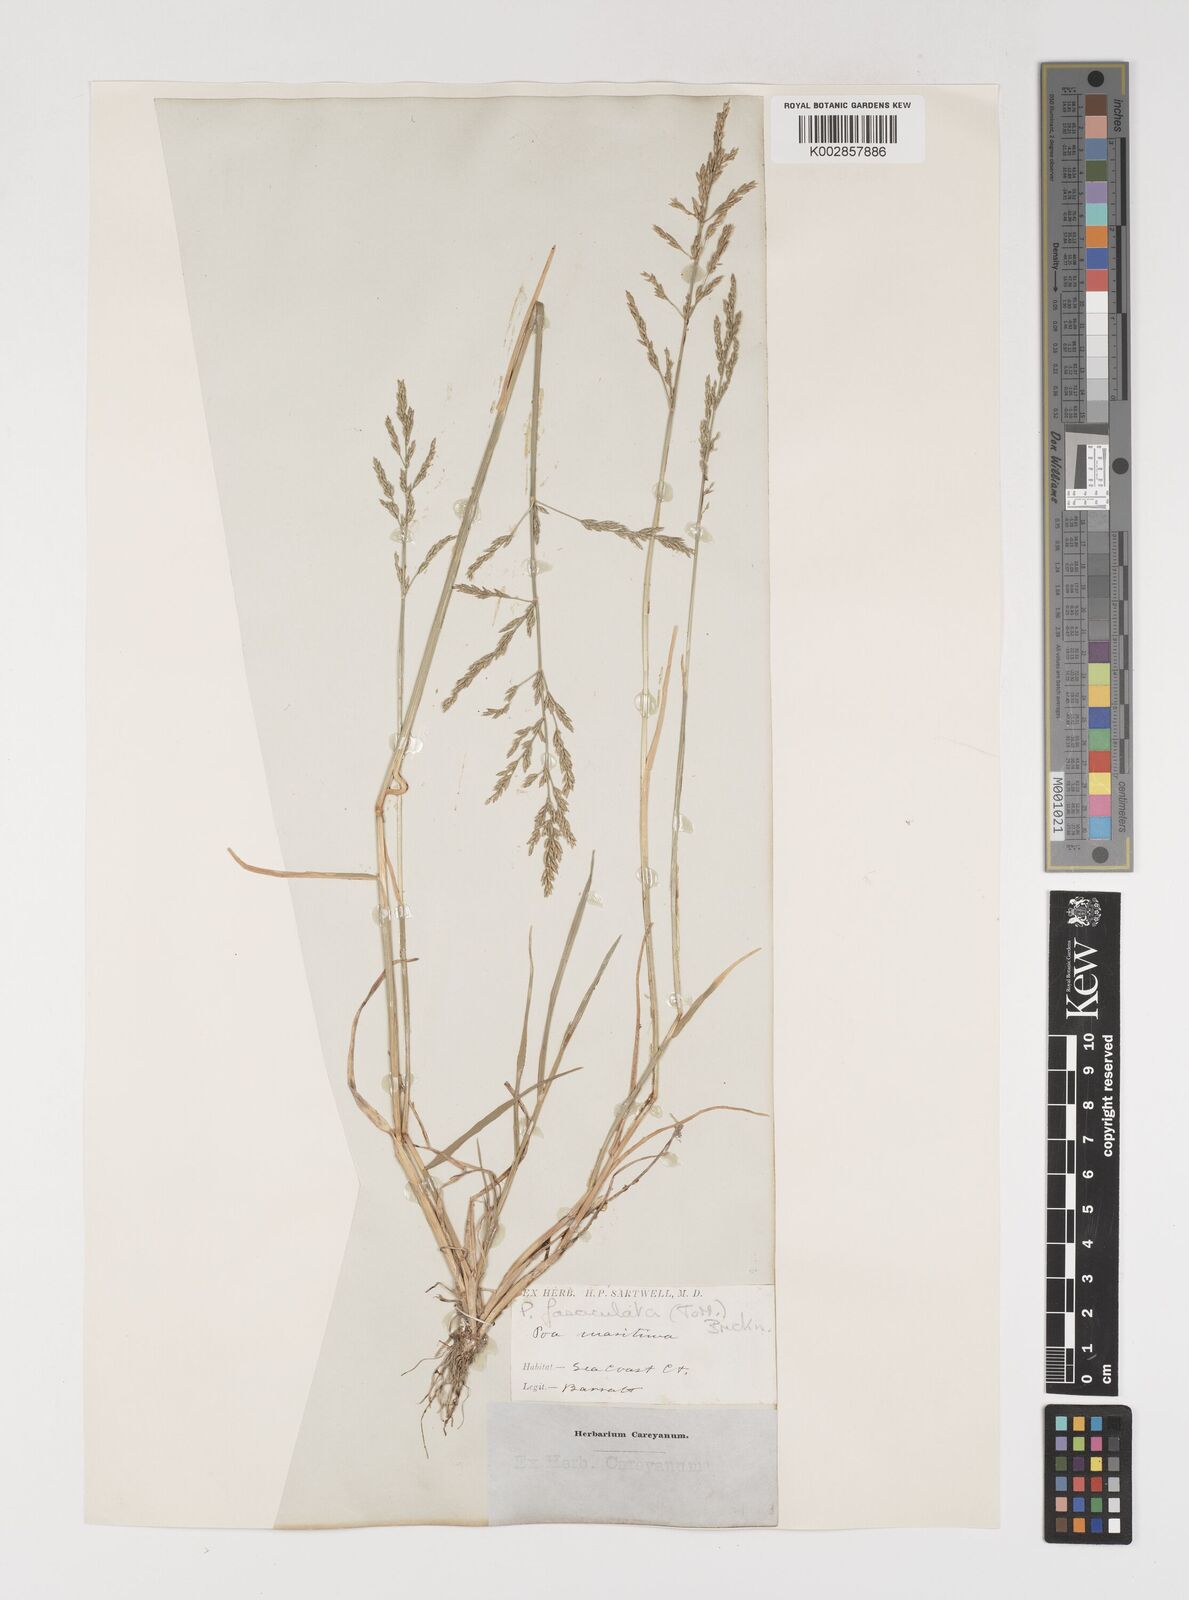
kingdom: Plantae
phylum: Tracheophyta
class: Liliopsida
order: Poales
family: Poaceae
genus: Puccinellia
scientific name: Puccinellia
